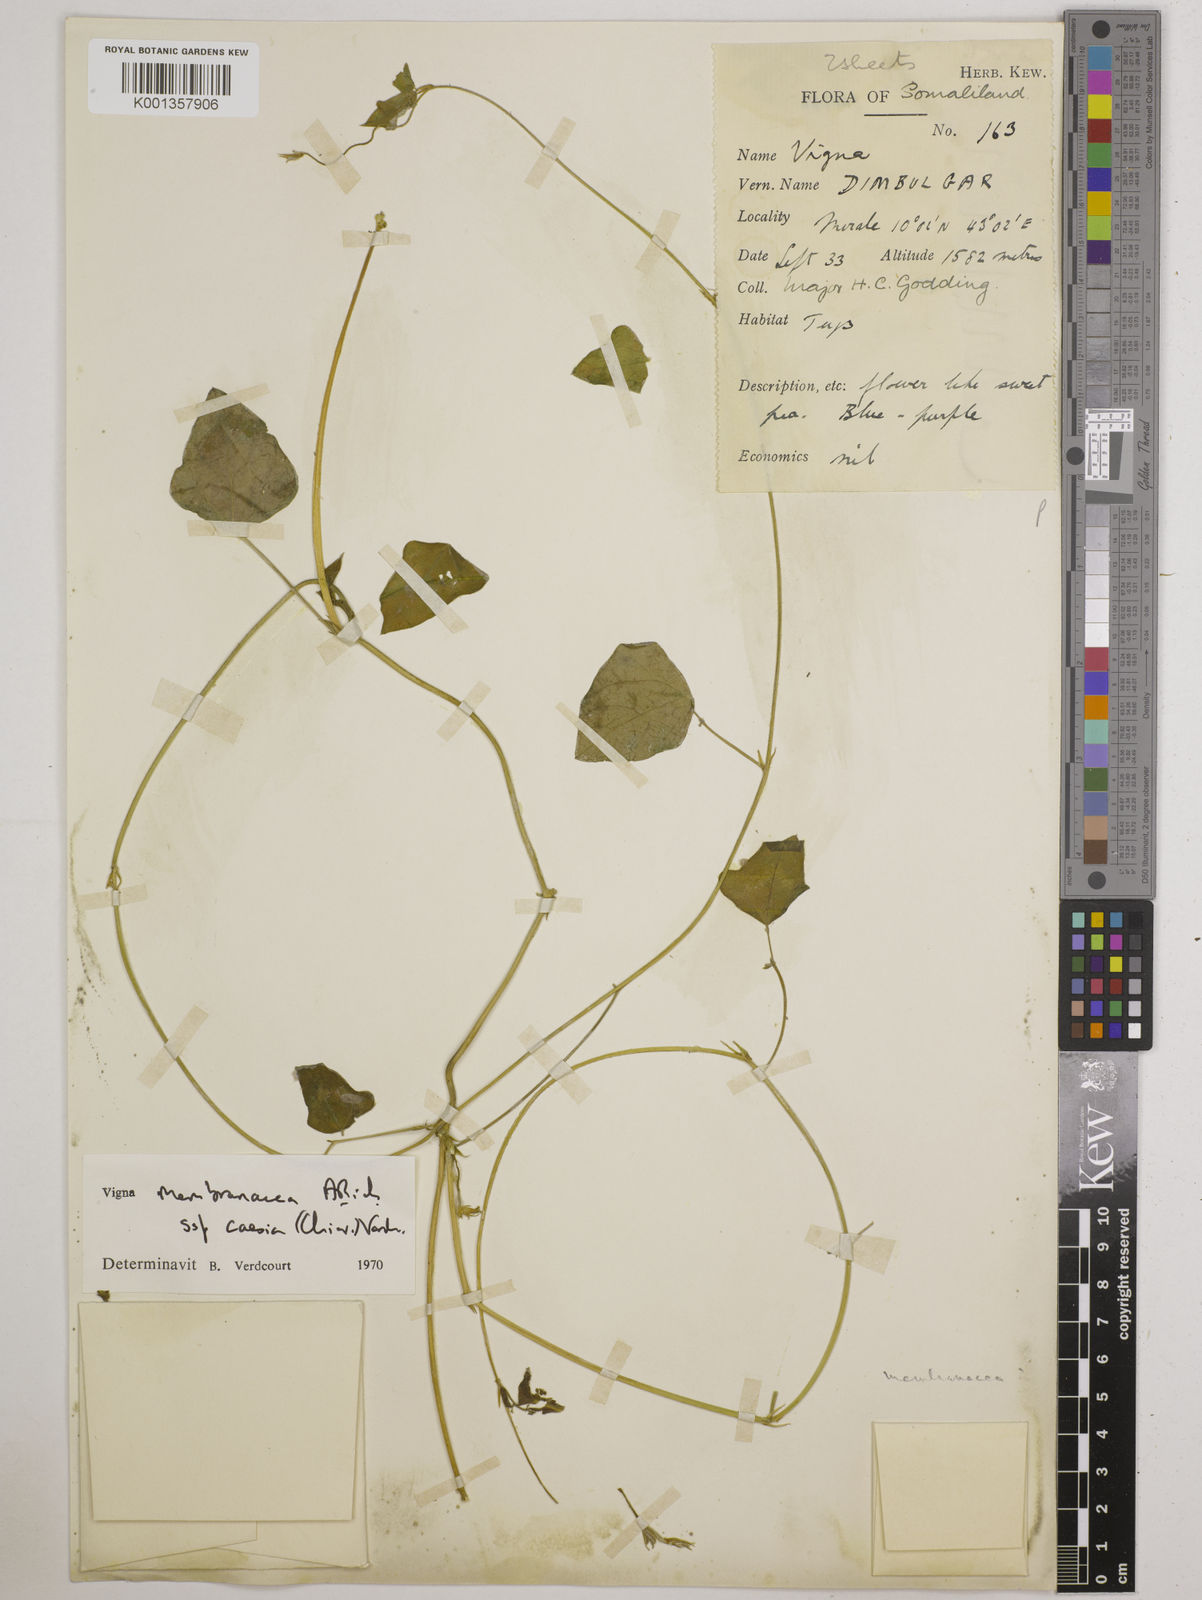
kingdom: Plantae
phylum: Tracheophyta
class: Magnoliopsida
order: Fabales
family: Fabaceae
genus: Vigna
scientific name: Vigna
